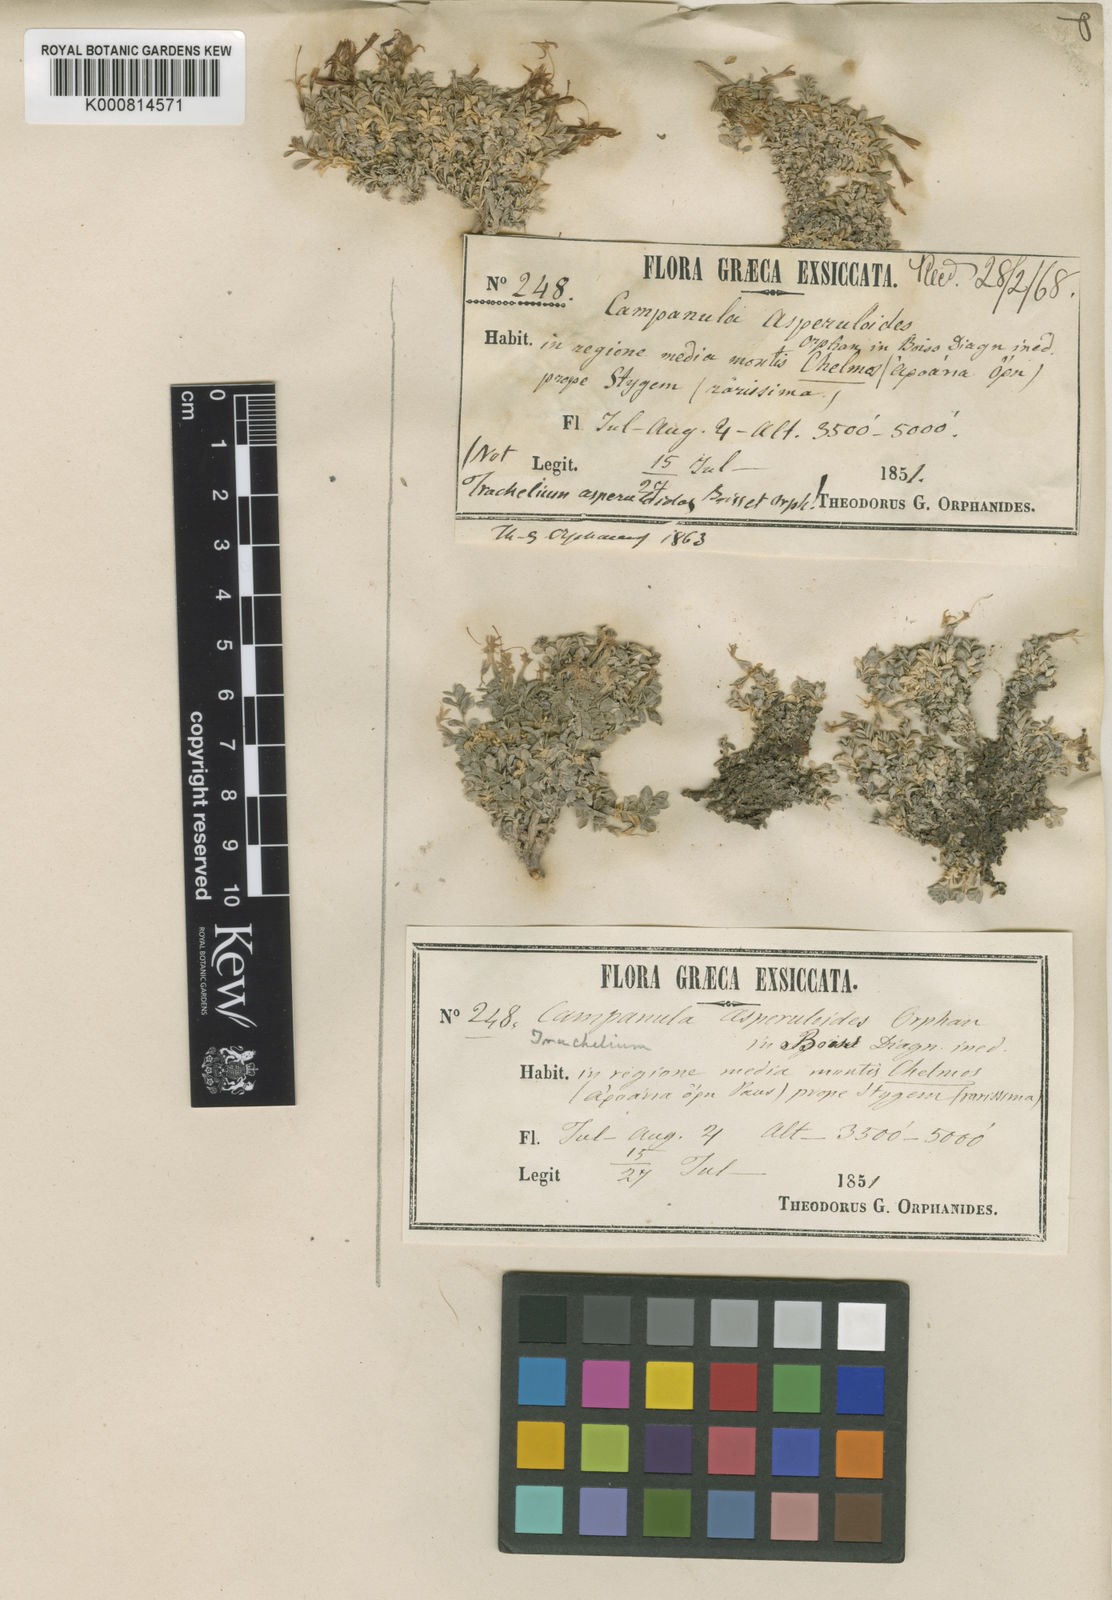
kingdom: Plantae
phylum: Tracheophyta
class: Magnoliopsida
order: Asterales
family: Campanulaceae
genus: Diosphaera
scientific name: Diosphaera
